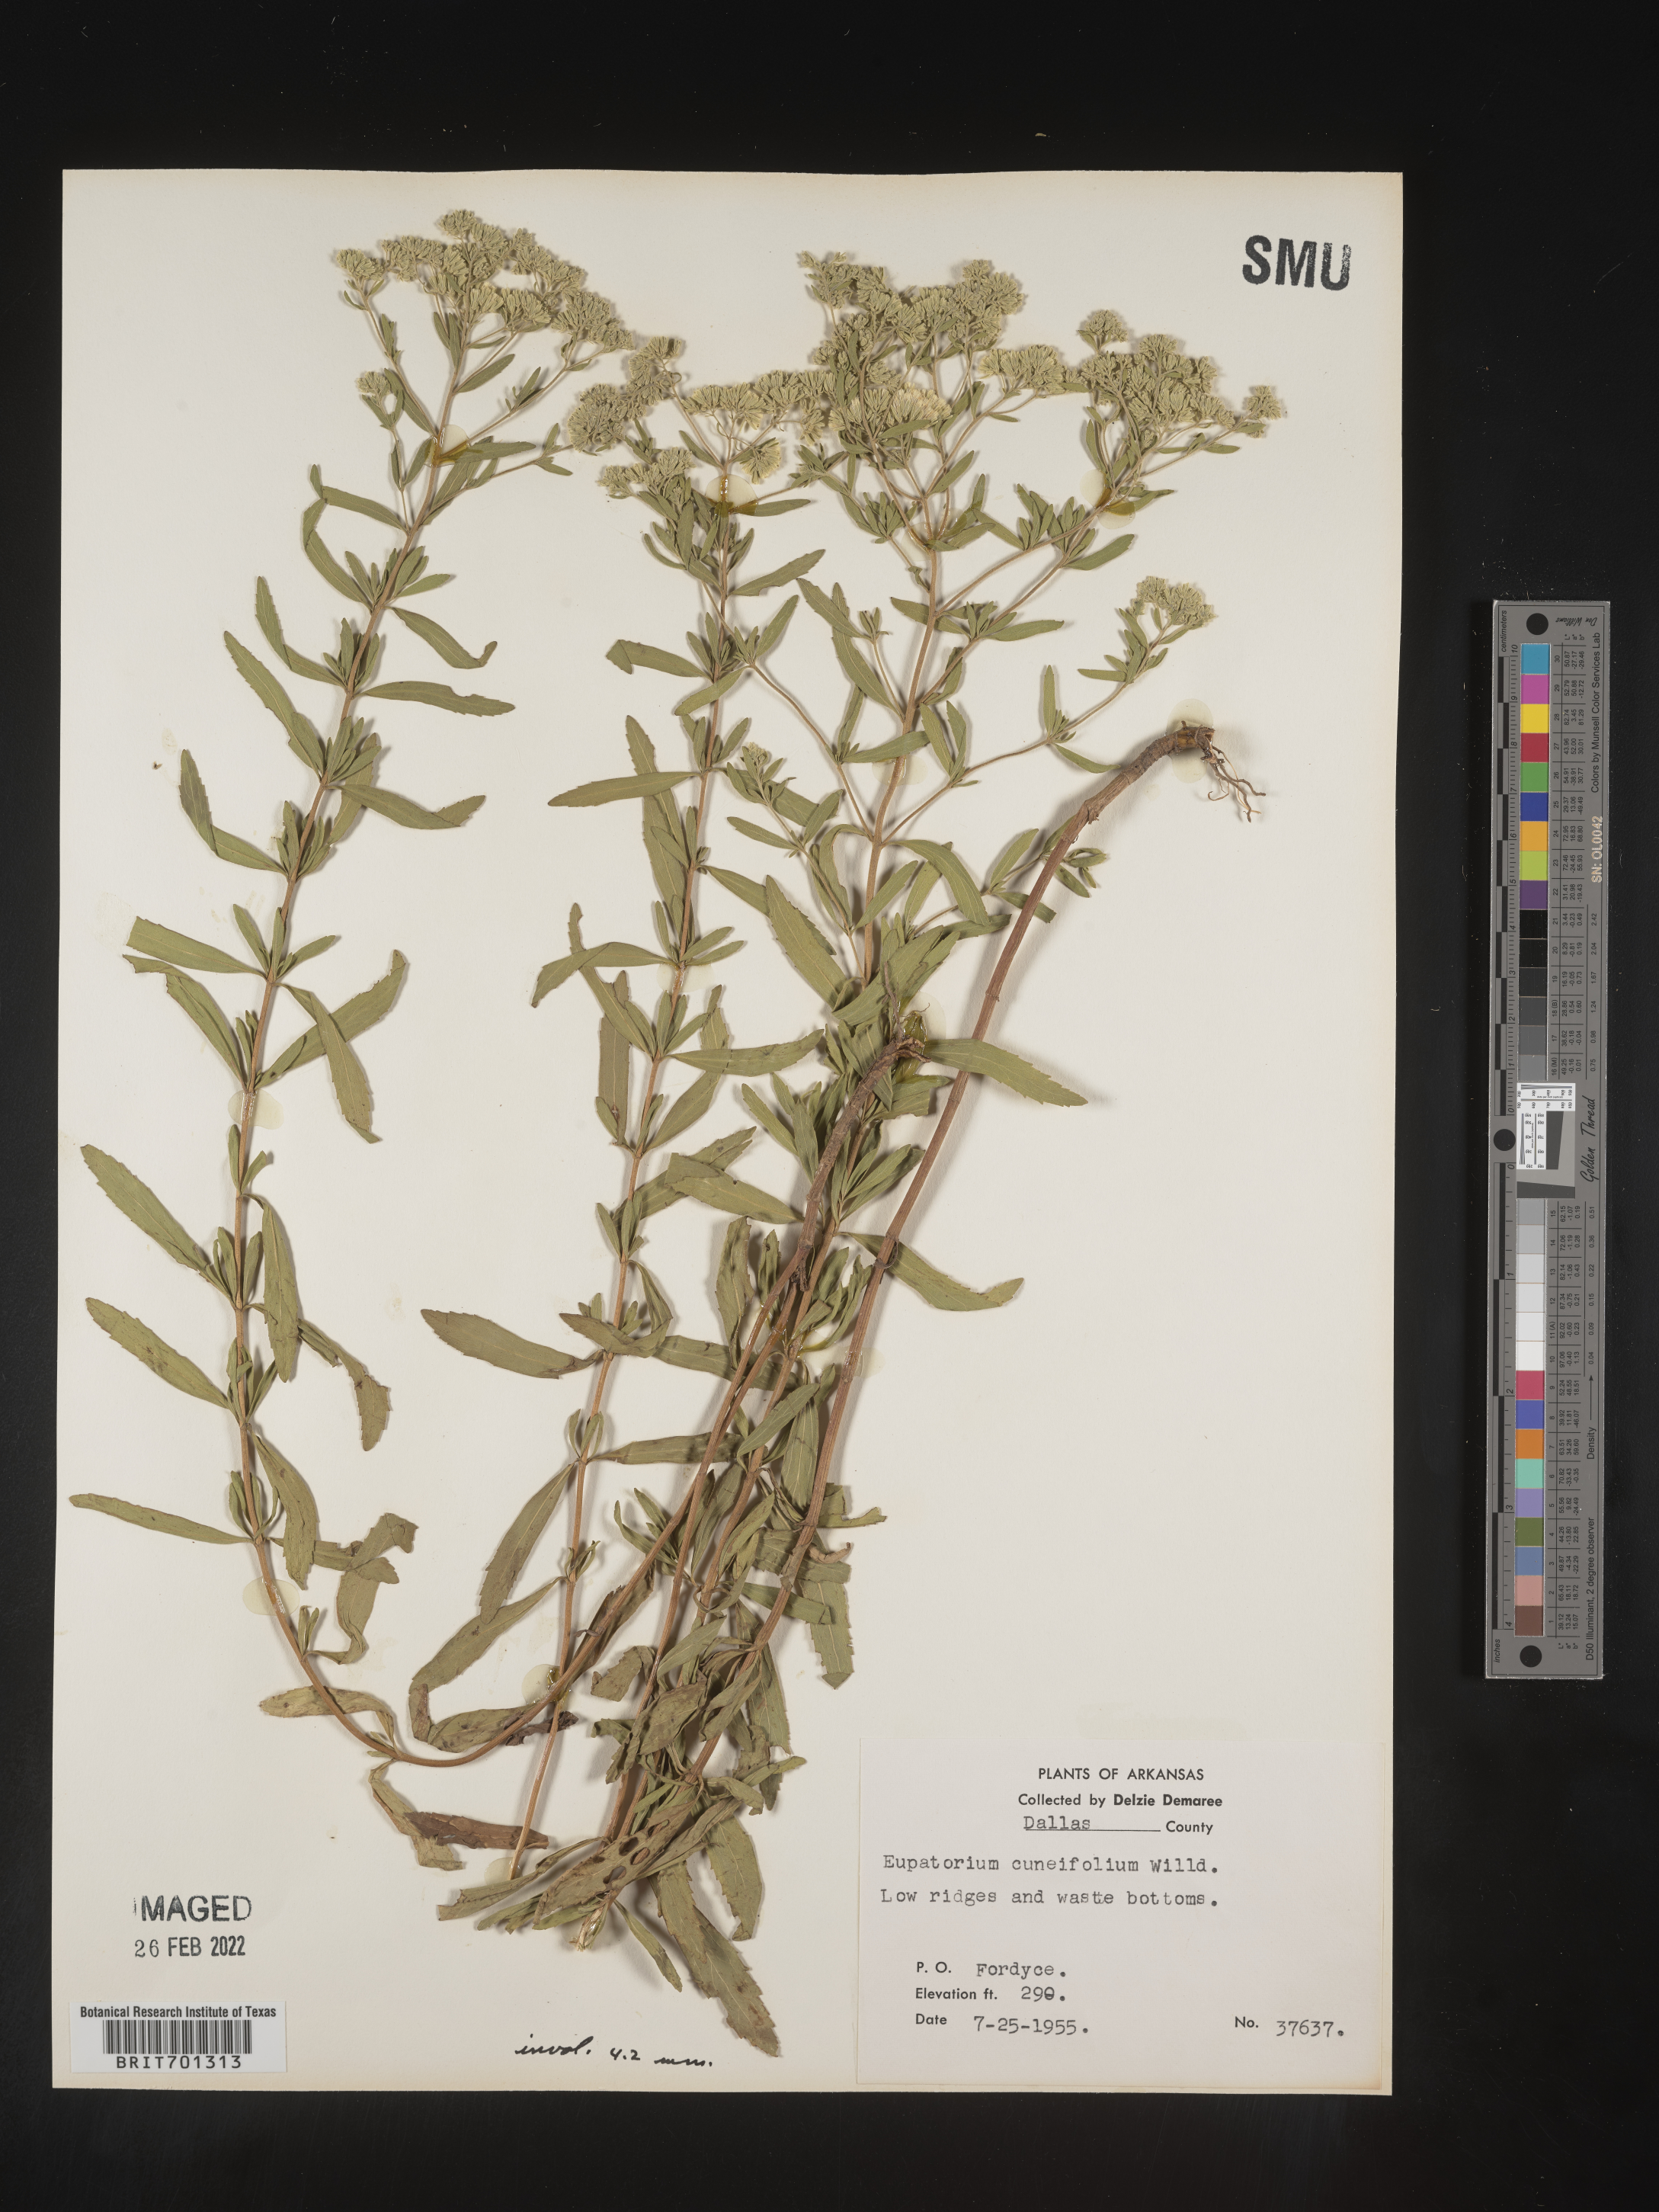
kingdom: Plantae
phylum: Tracheophyta
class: Magnoliopsida
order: Asterales
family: Asteraceae
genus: Eupatorium
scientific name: Eupatorium linearifolium
